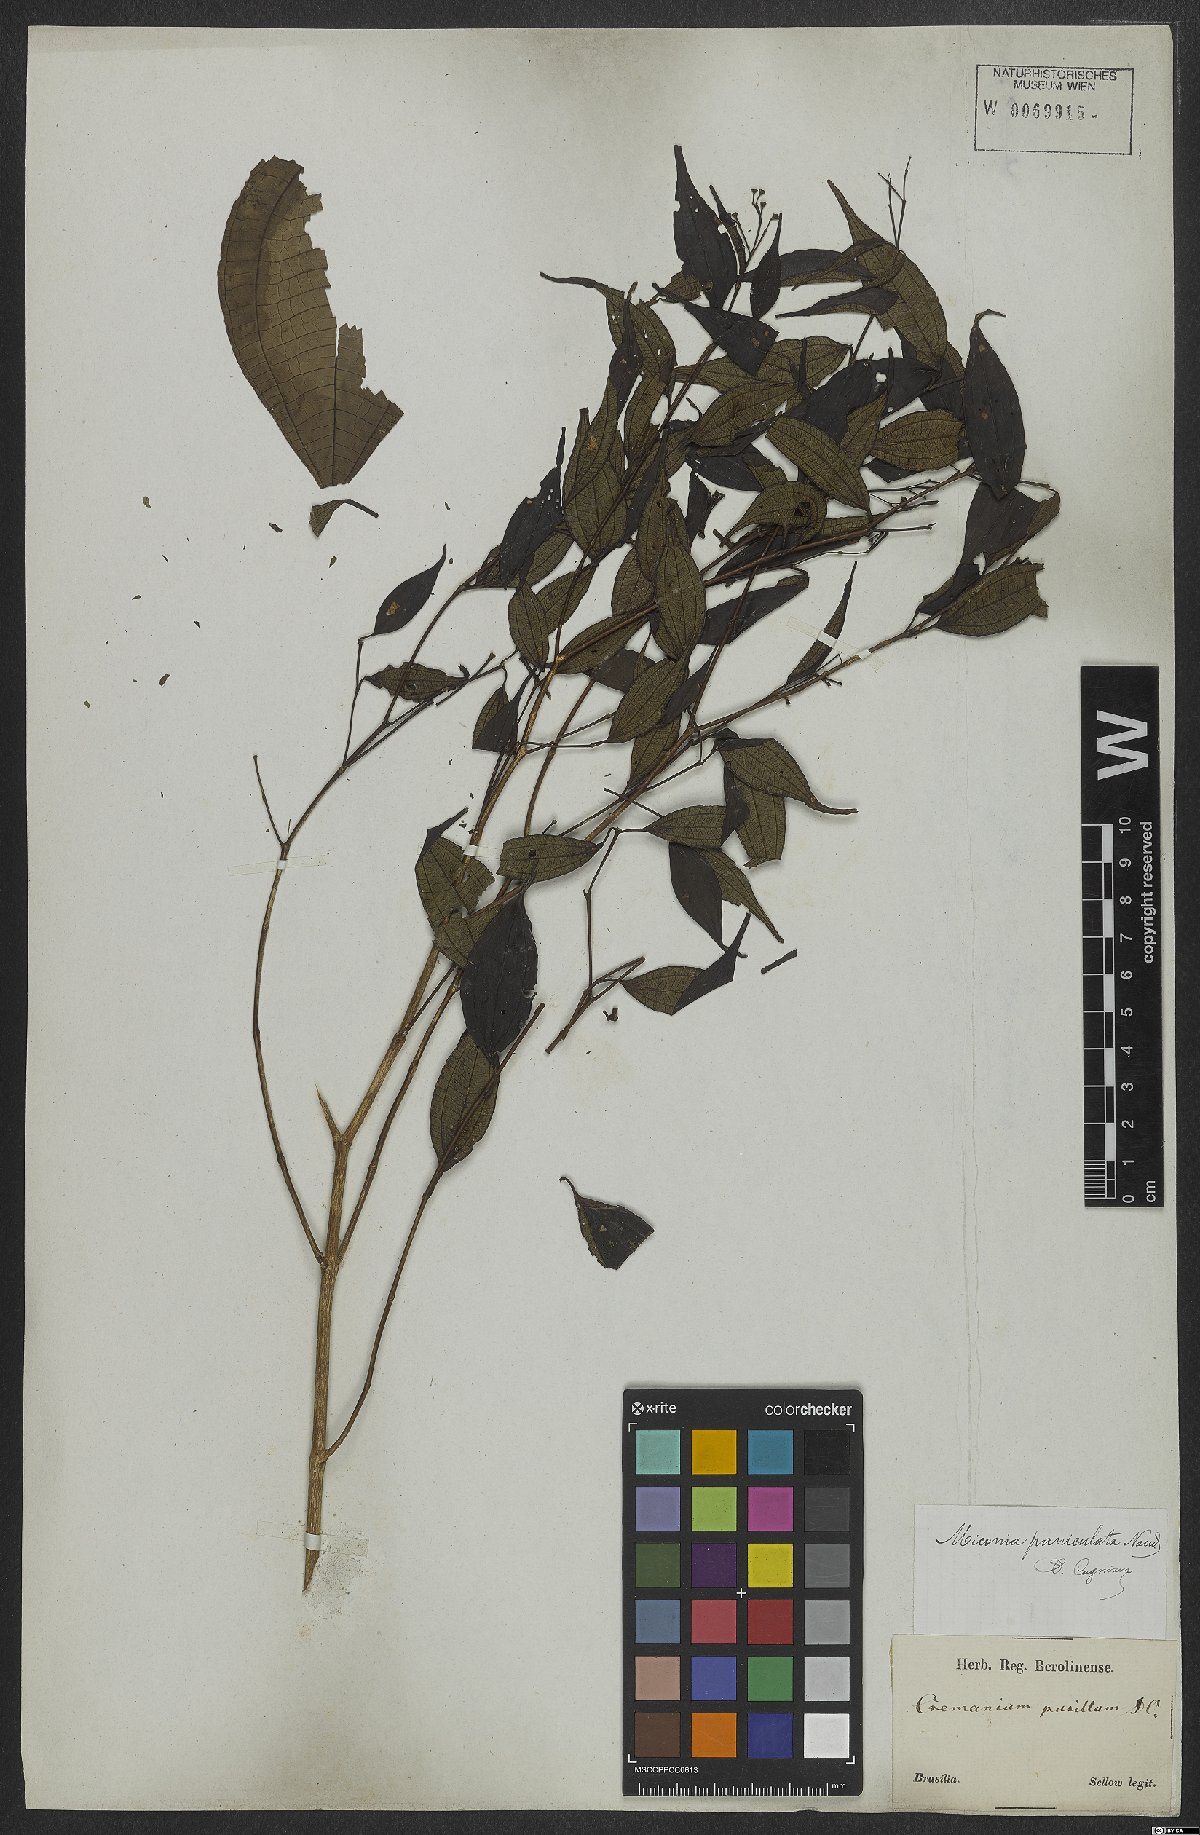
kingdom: Plantae
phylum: Tracheophyta
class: Magnoliopsida
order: Myrtales
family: Melastomataceae
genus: Miconia
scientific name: Miconia paniculata
